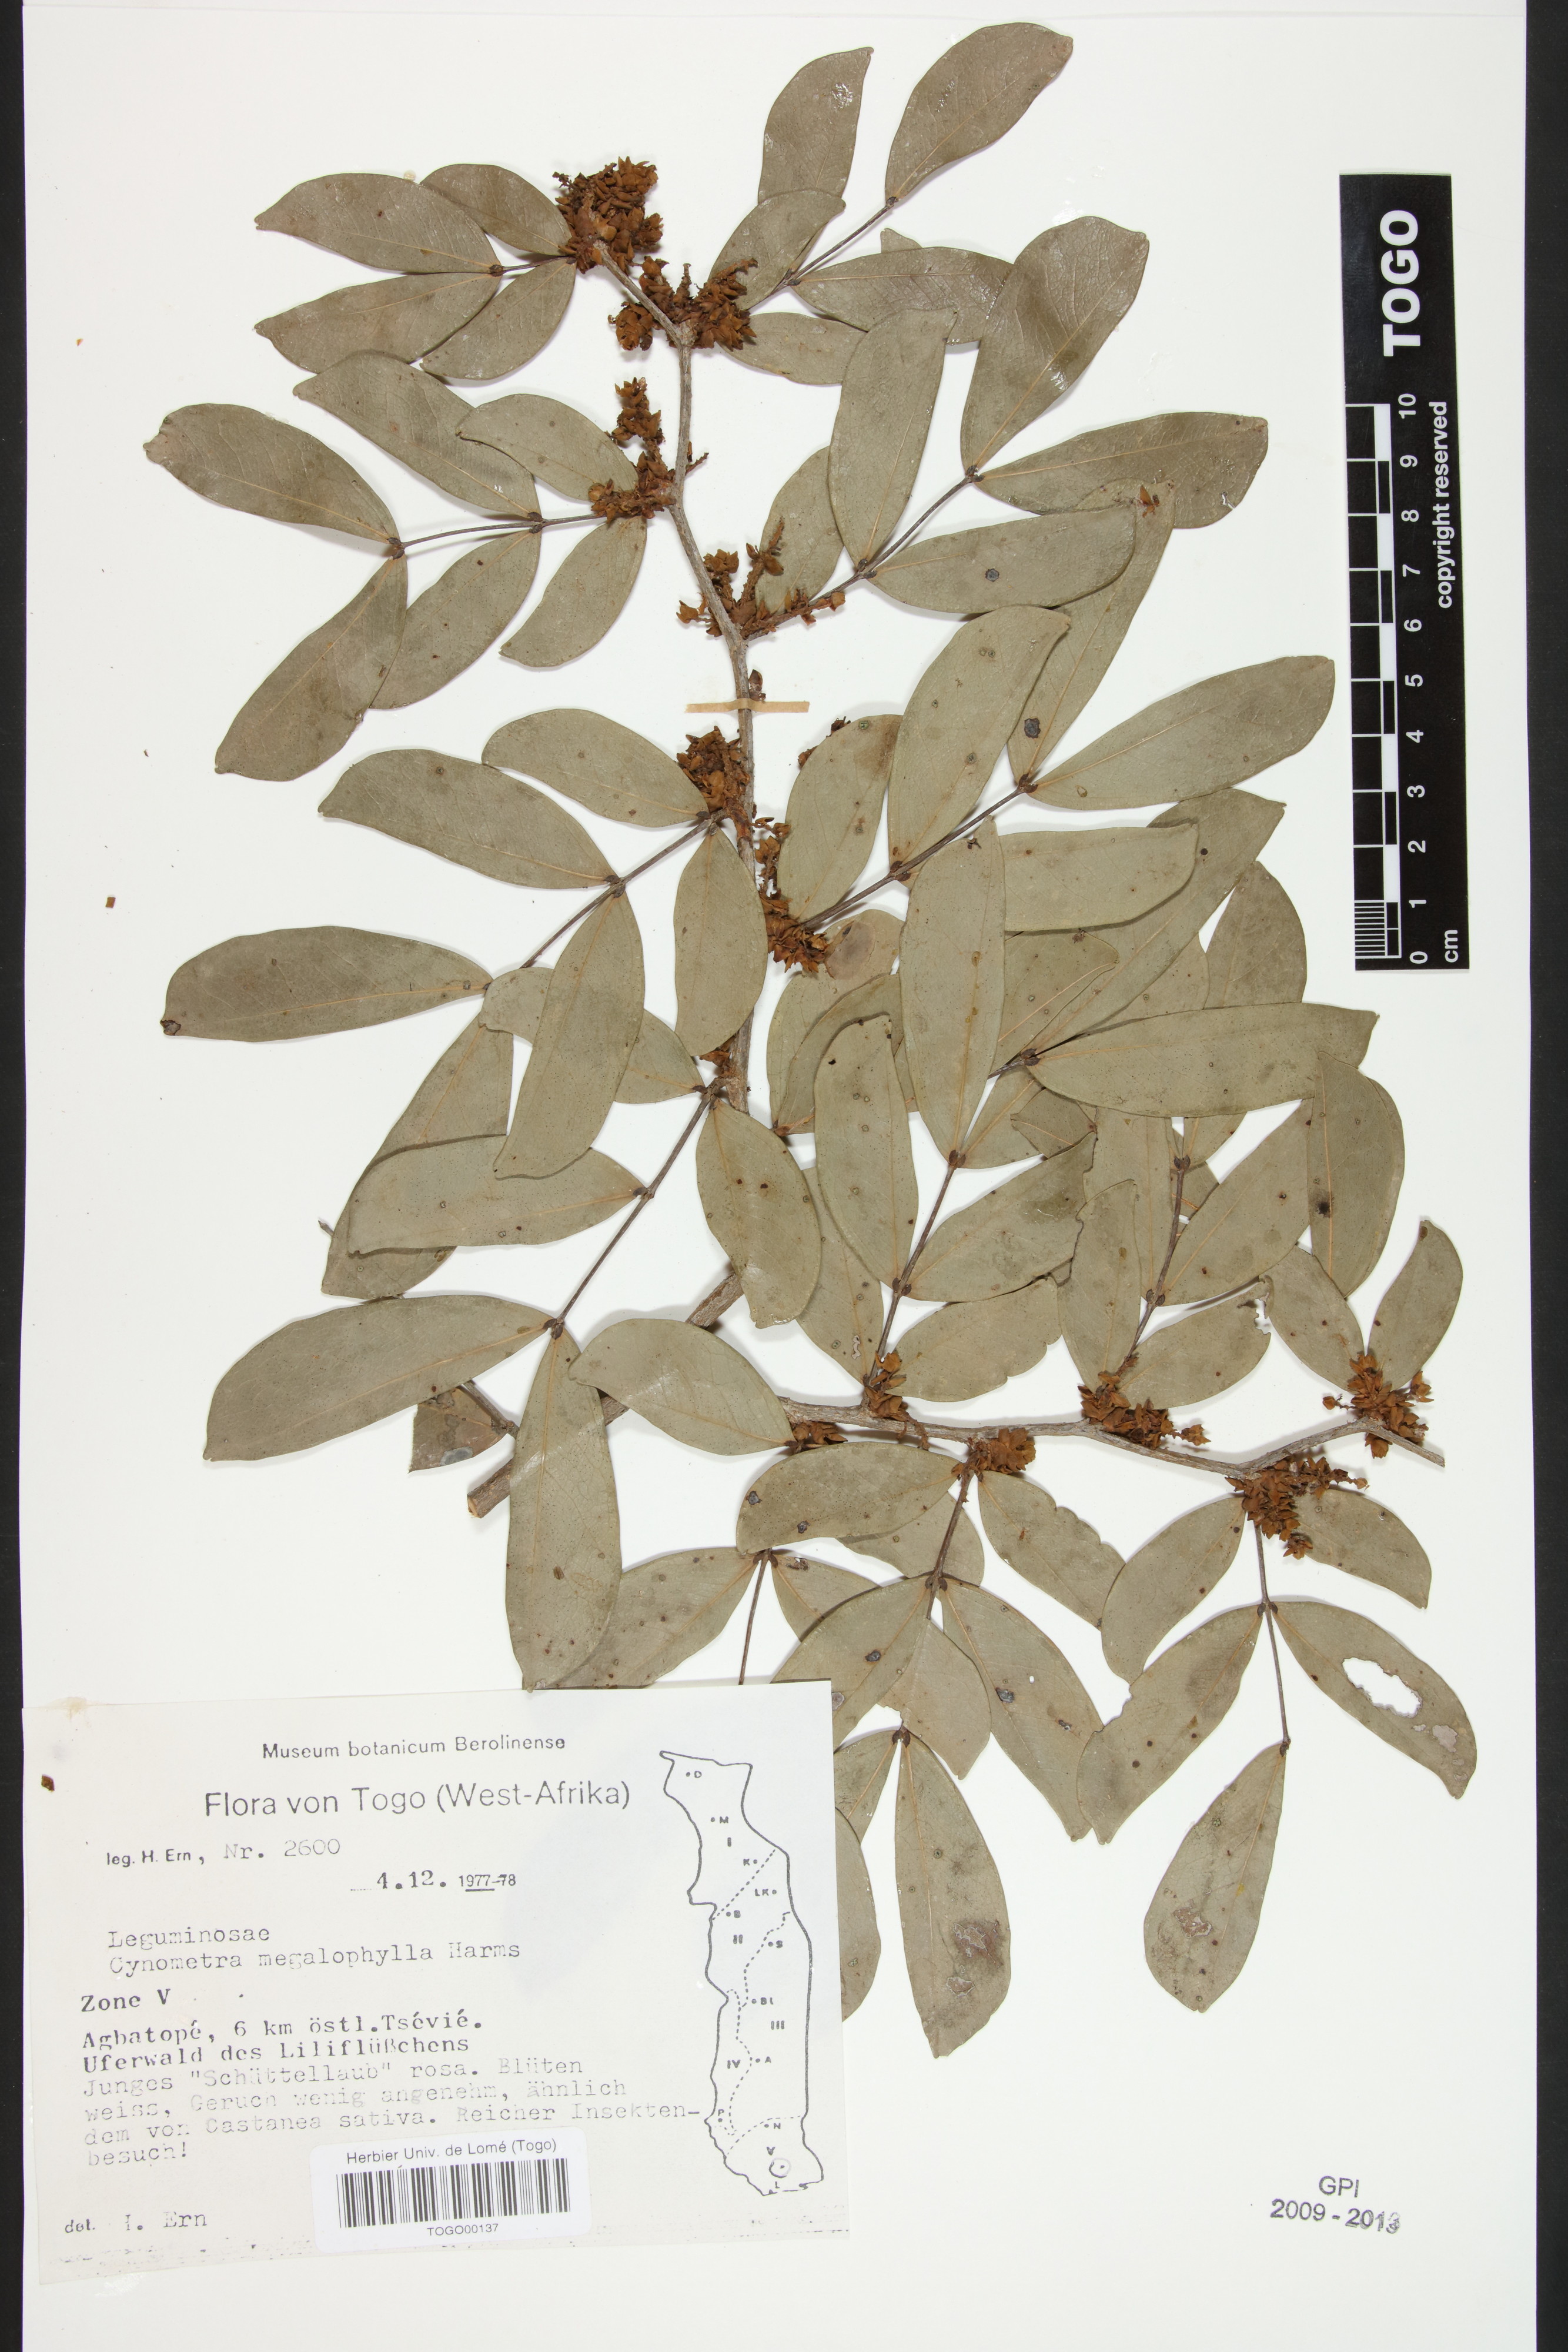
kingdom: Plantae
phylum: Tracheophyta
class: Magnoliopsida
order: Fabales
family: Fabaceae
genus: Cynometra
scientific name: Cynometra megalophylla
